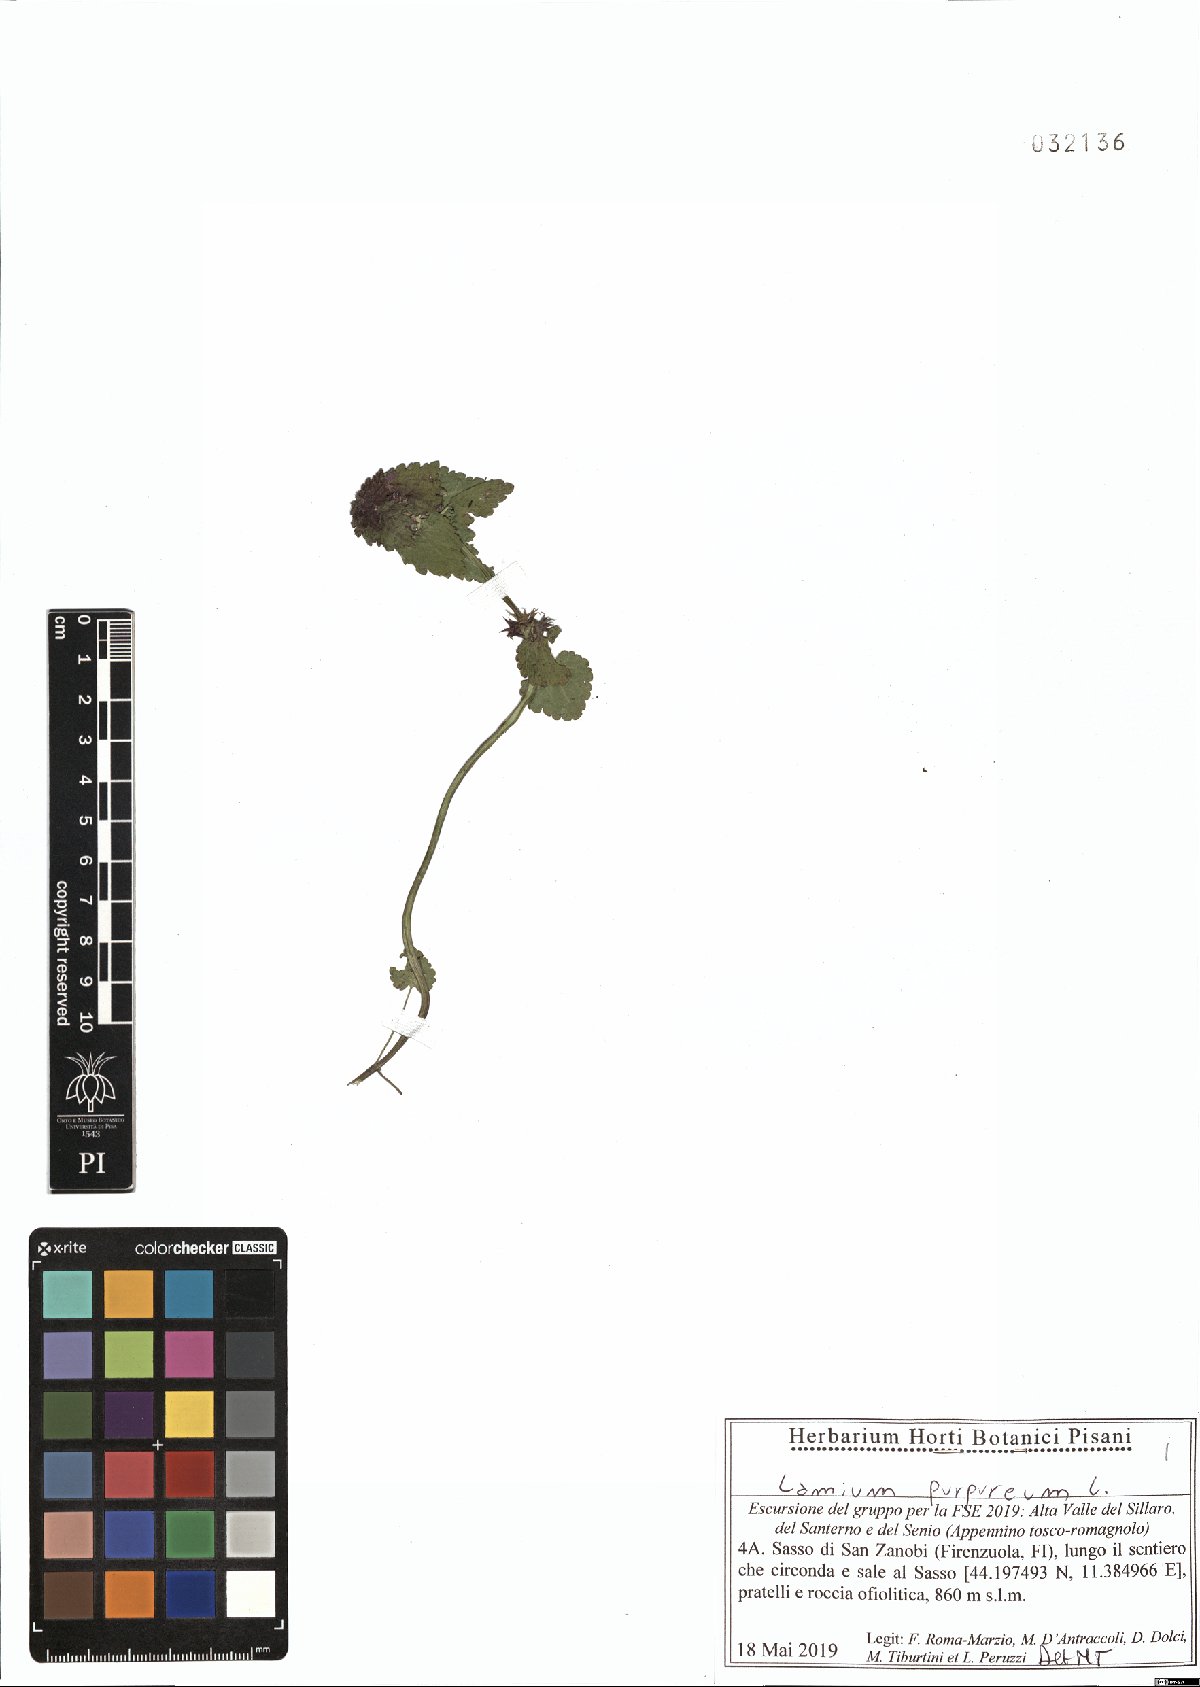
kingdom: Plantae
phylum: Tracheophyta
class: Magnoliopsida
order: Lamiales
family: Lamiaceae
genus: Lamium
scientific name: Lamium purpureum
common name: Red dead-nettle
